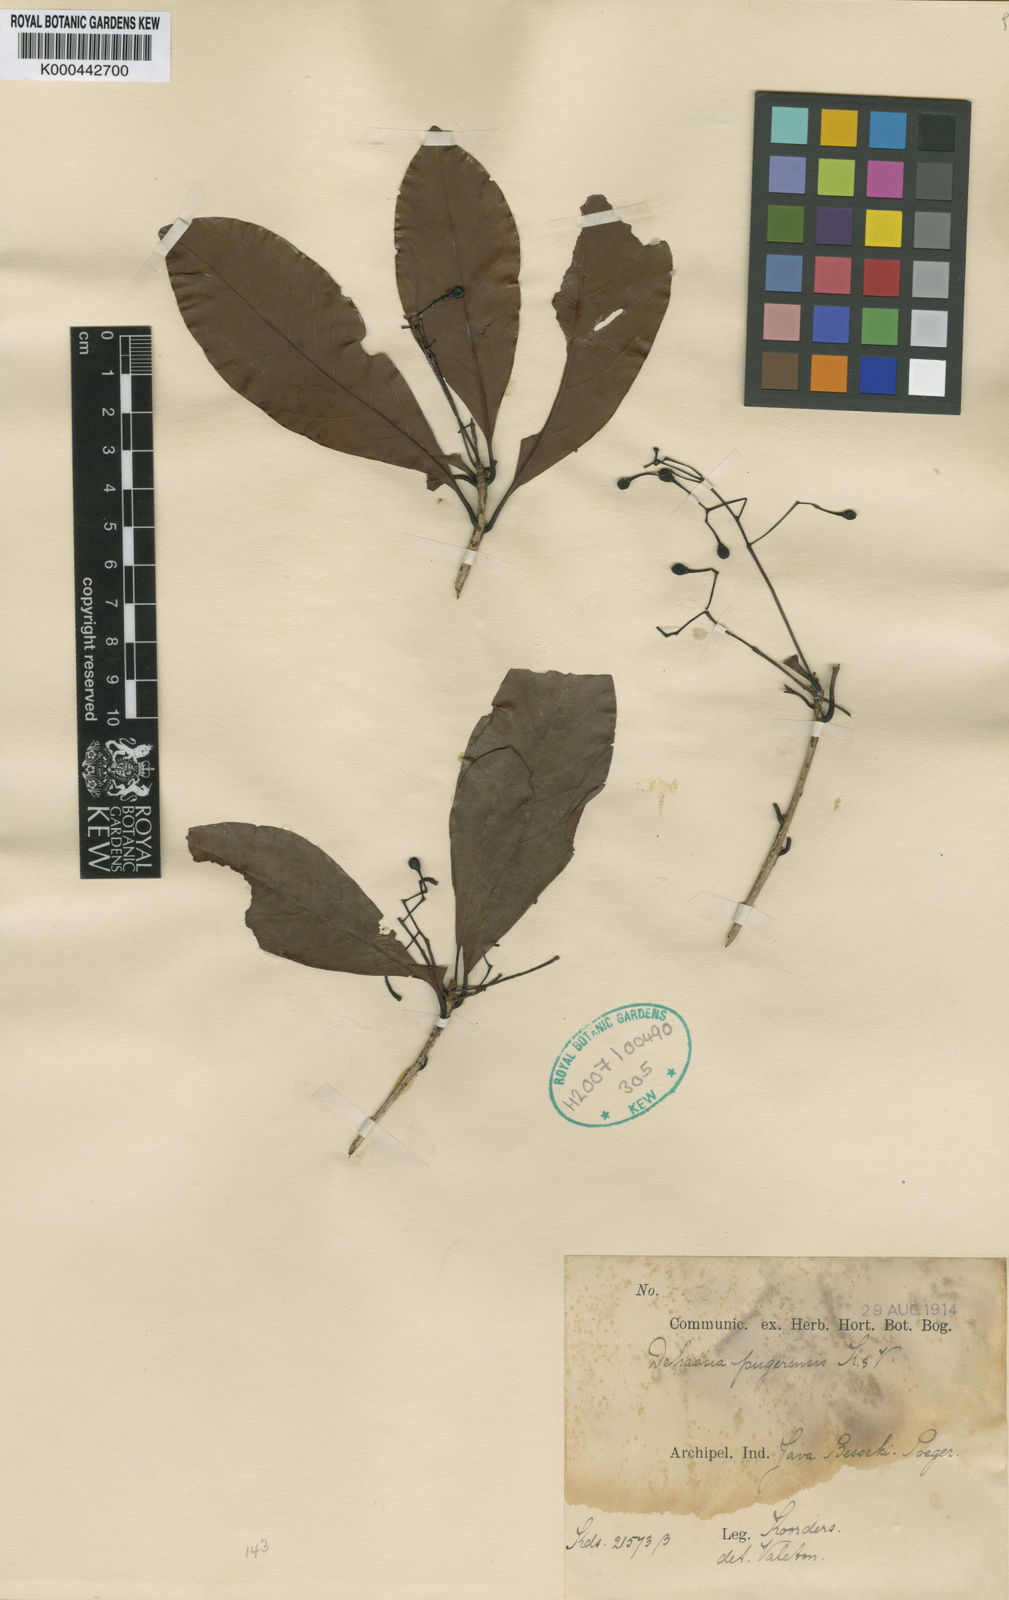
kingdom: Plantae
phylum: Tracheophyta
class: Magnoliopsida
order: Laurales
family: Lauraceae
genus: Dehaasia
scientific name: Dehaasia pugerensis
